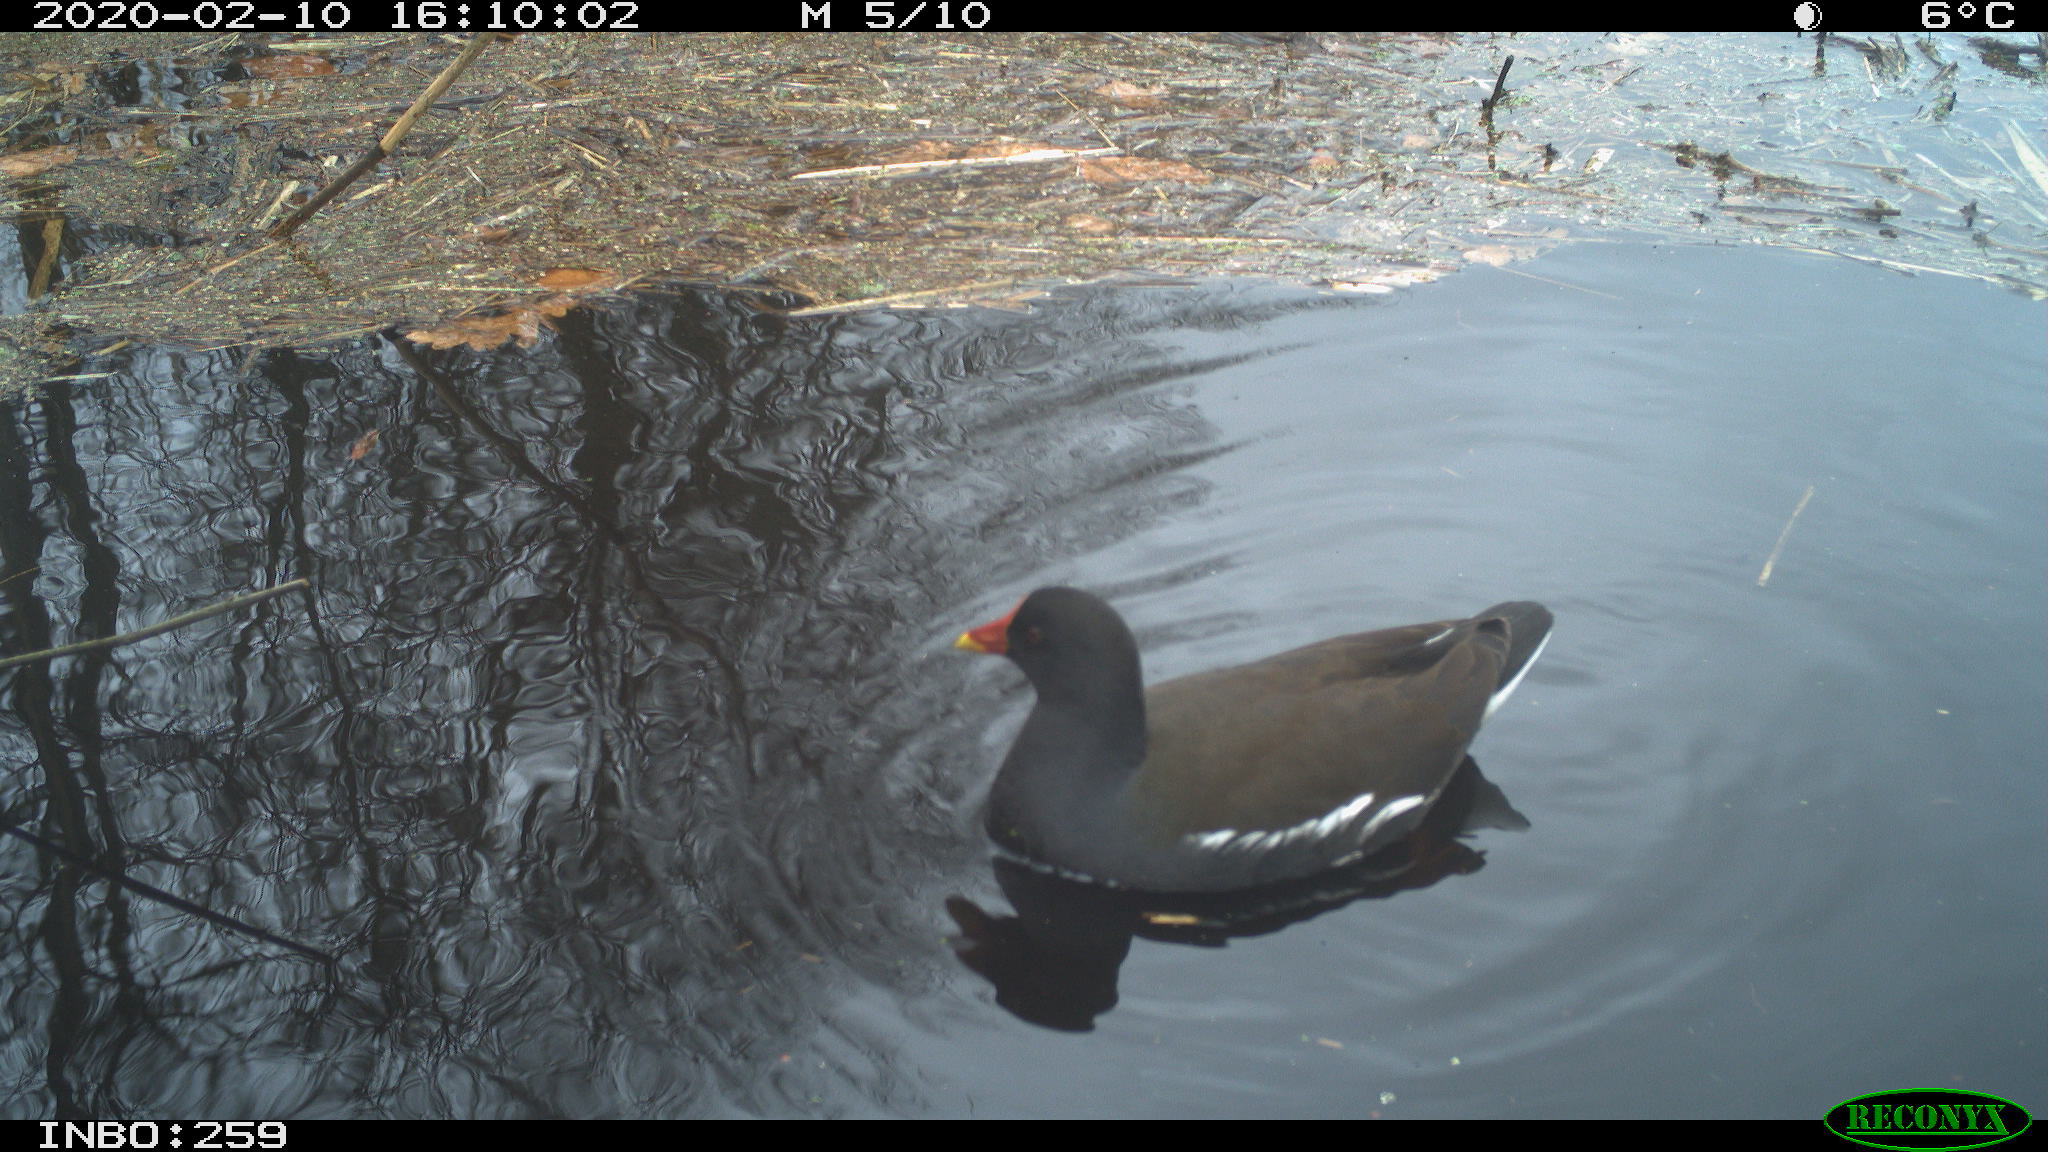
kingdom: Animalia
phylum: Chordata
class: Aves
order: Gruiformes
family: Rallidae
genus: Gallinula
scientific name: Gallinula chloropus
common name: Common moorhen
